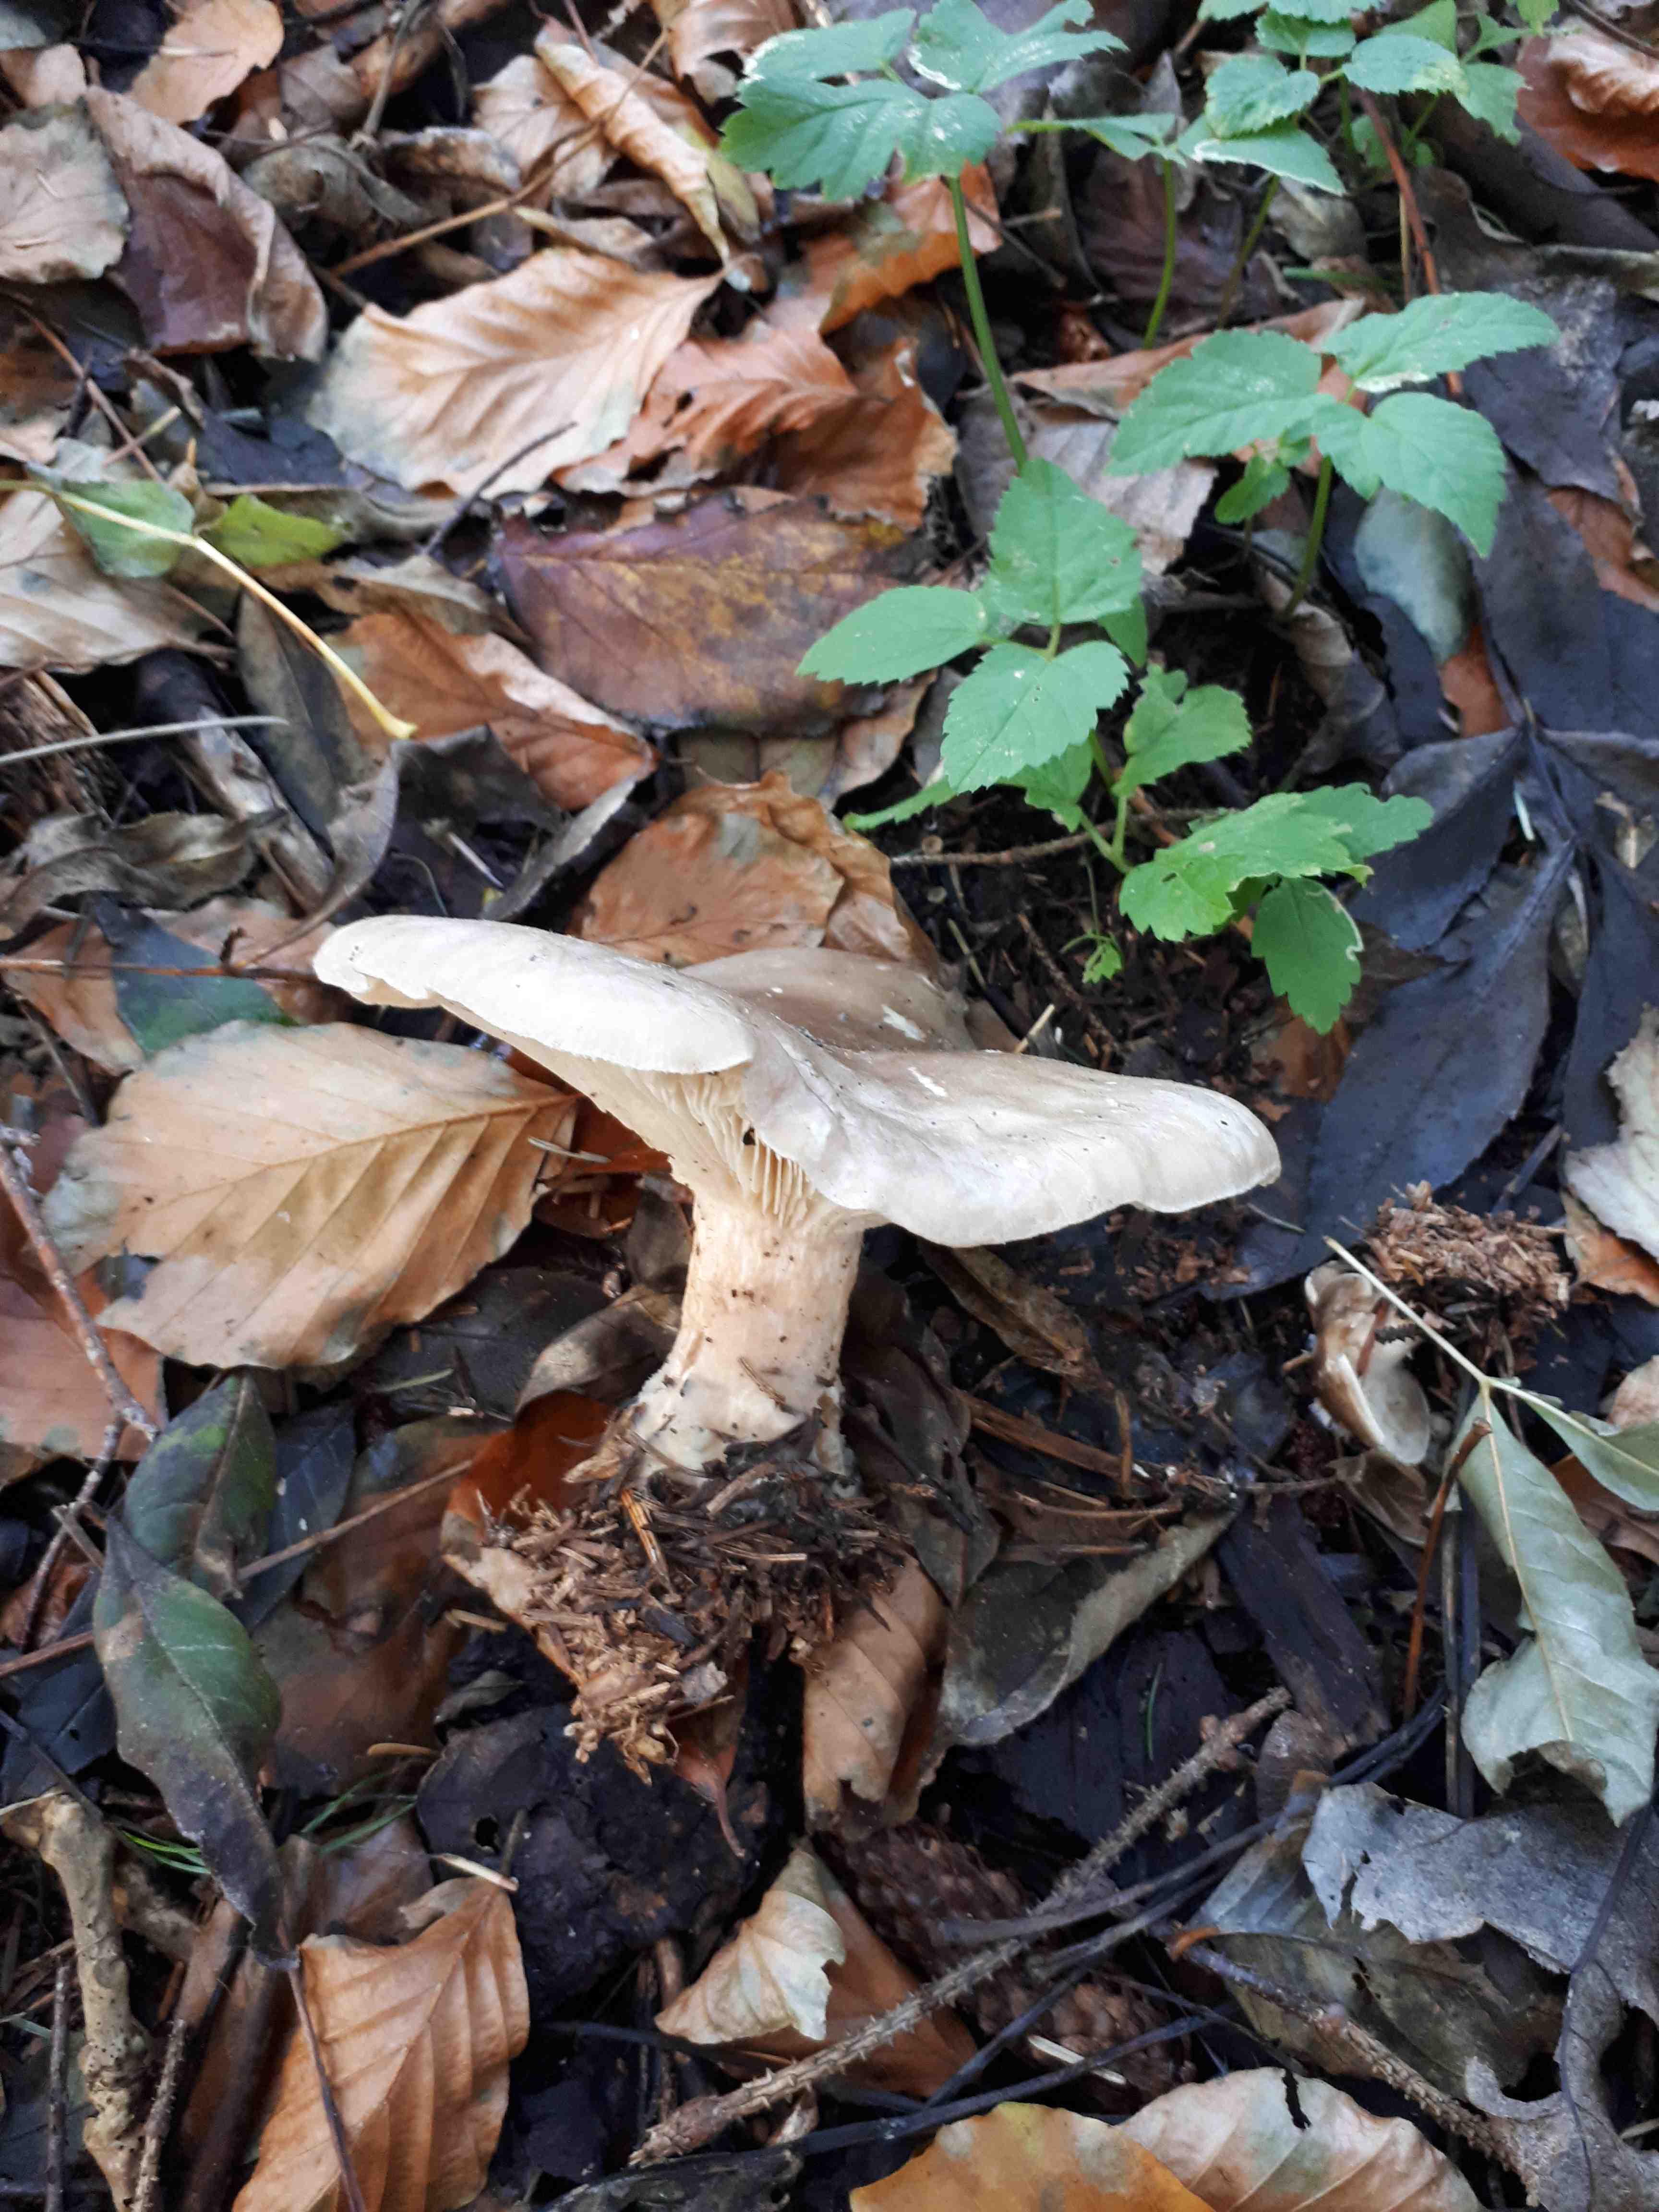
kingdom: Fungi
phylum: Basidiomycota
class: Agaricomycetes
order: Agaricales
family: Tricholomataceae
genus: Clitocybe
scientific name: Clitocybe nebularis
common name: tåge-tragthat
